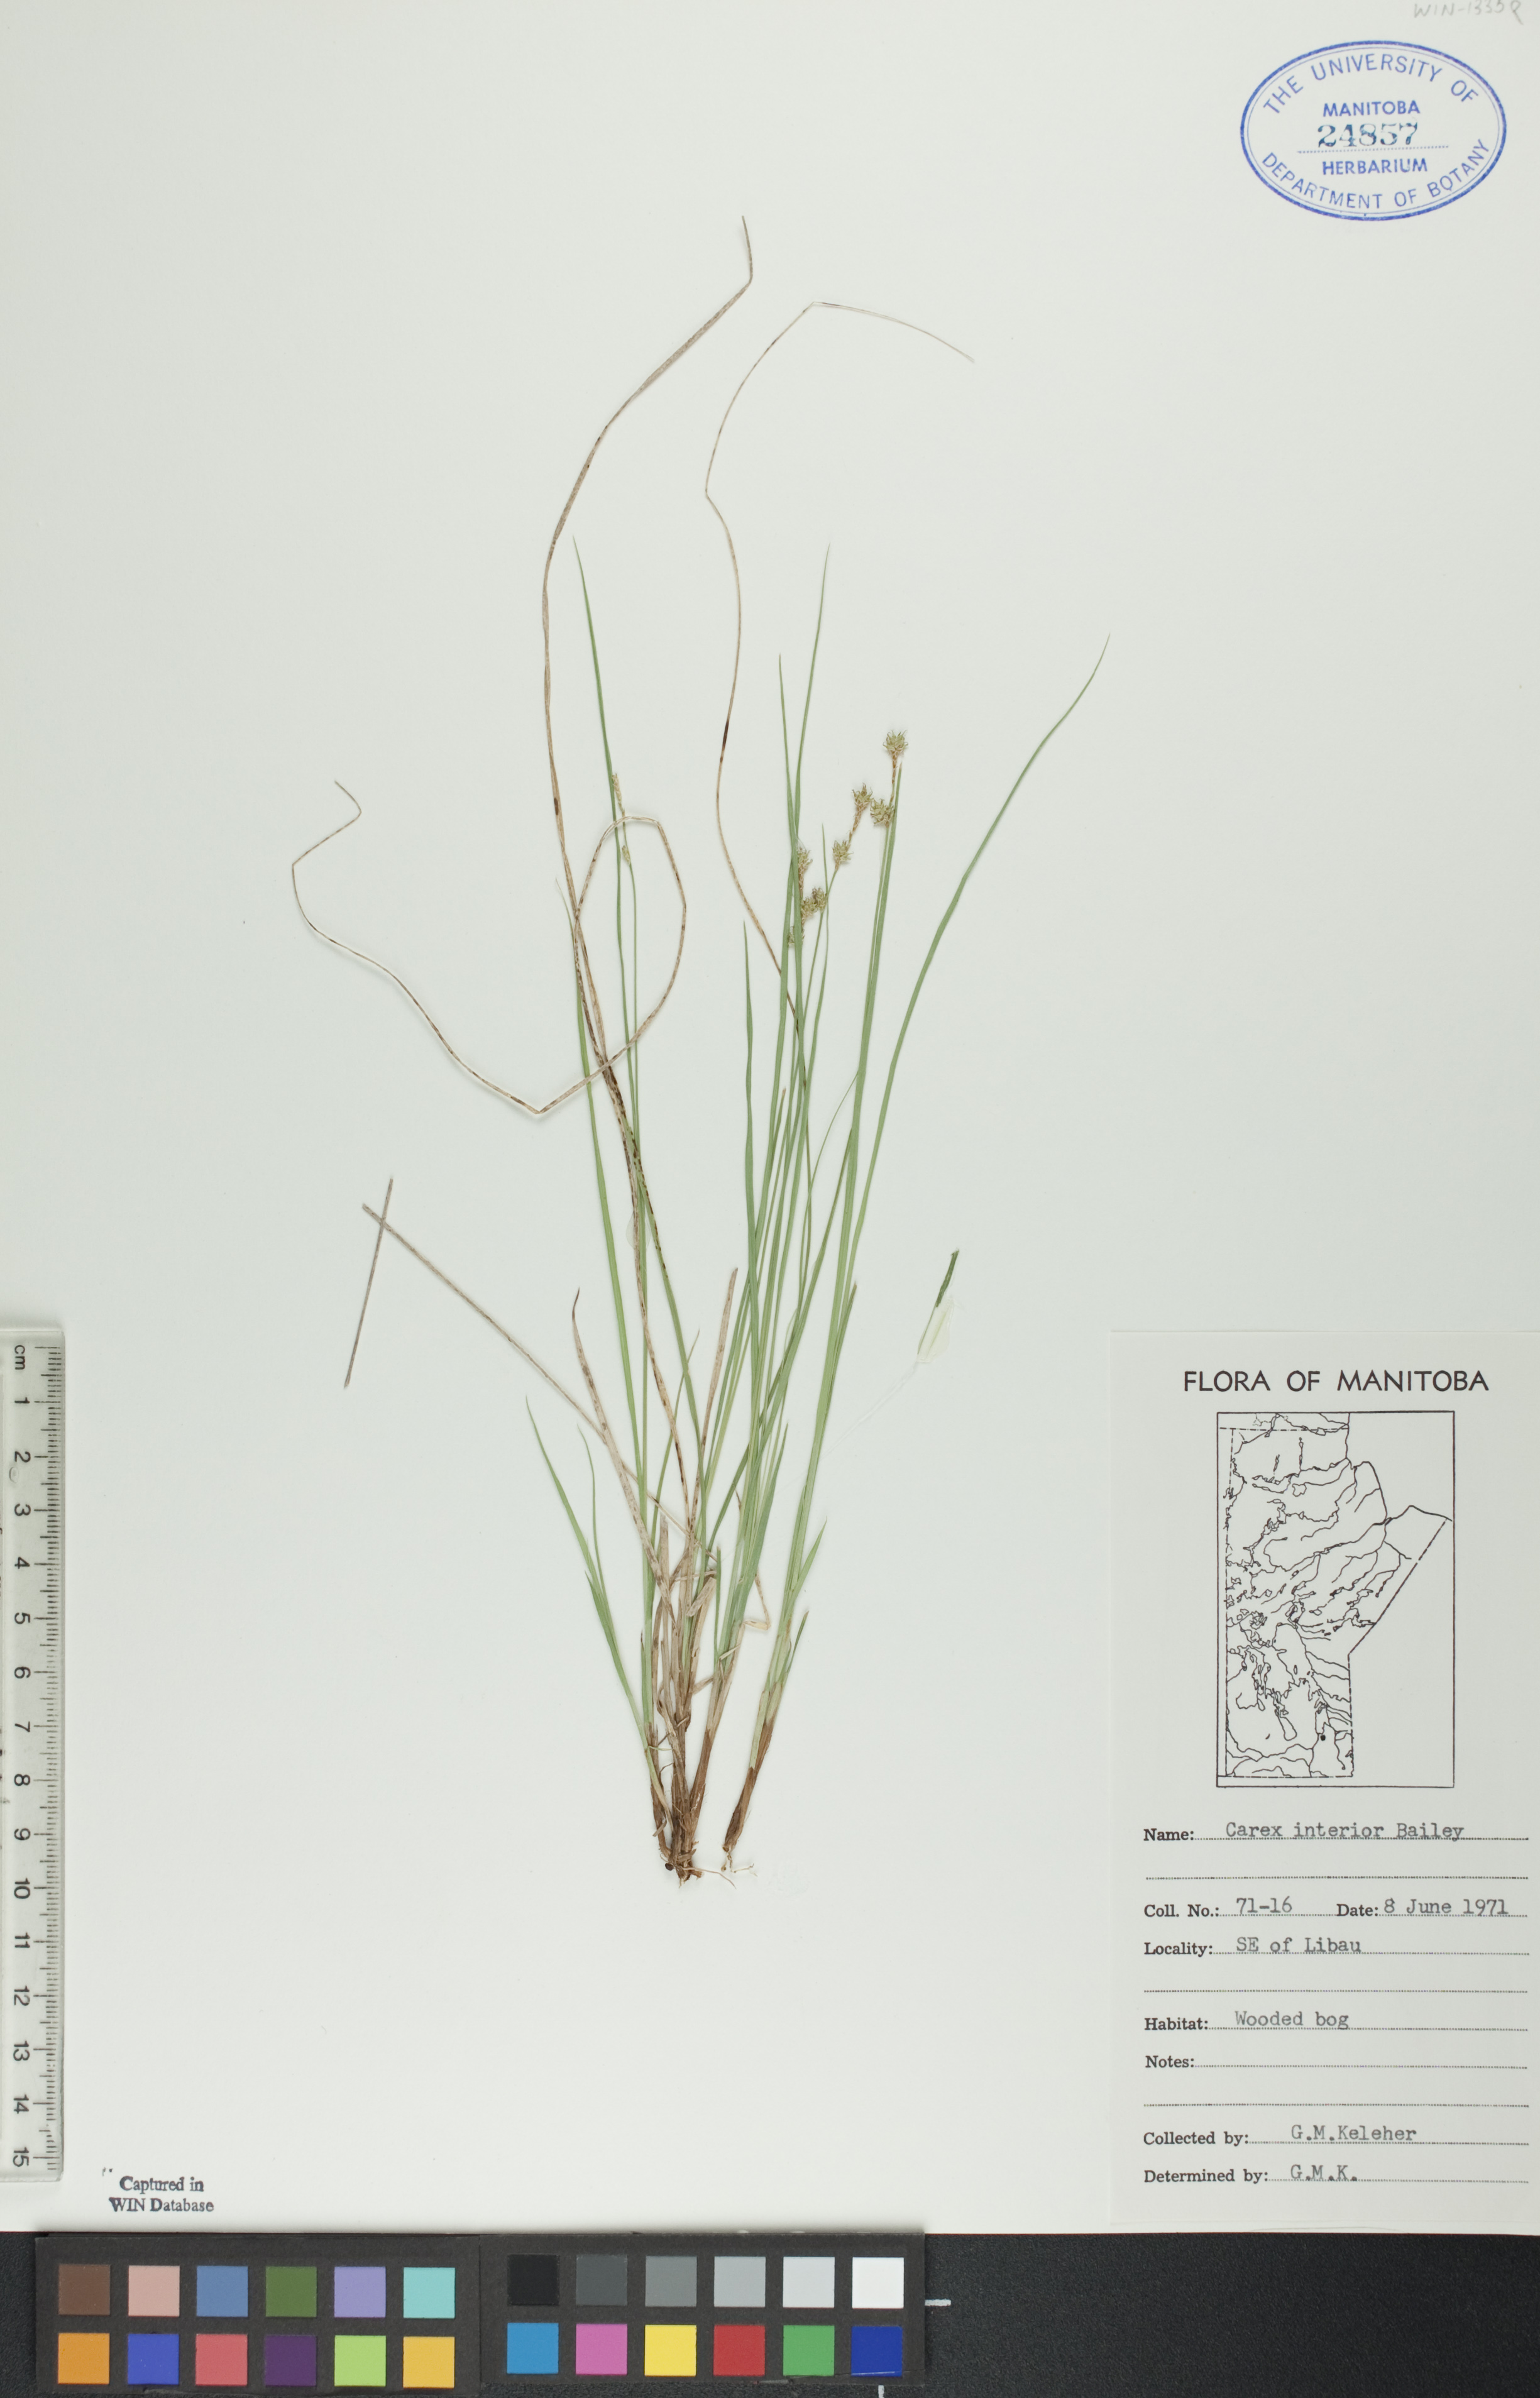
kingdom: Plantae
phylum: Tracheophyta
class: Liliopsida
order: Poales
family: Cyperaceae
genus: Carex
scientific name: Carex interior
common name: Inland sedge
